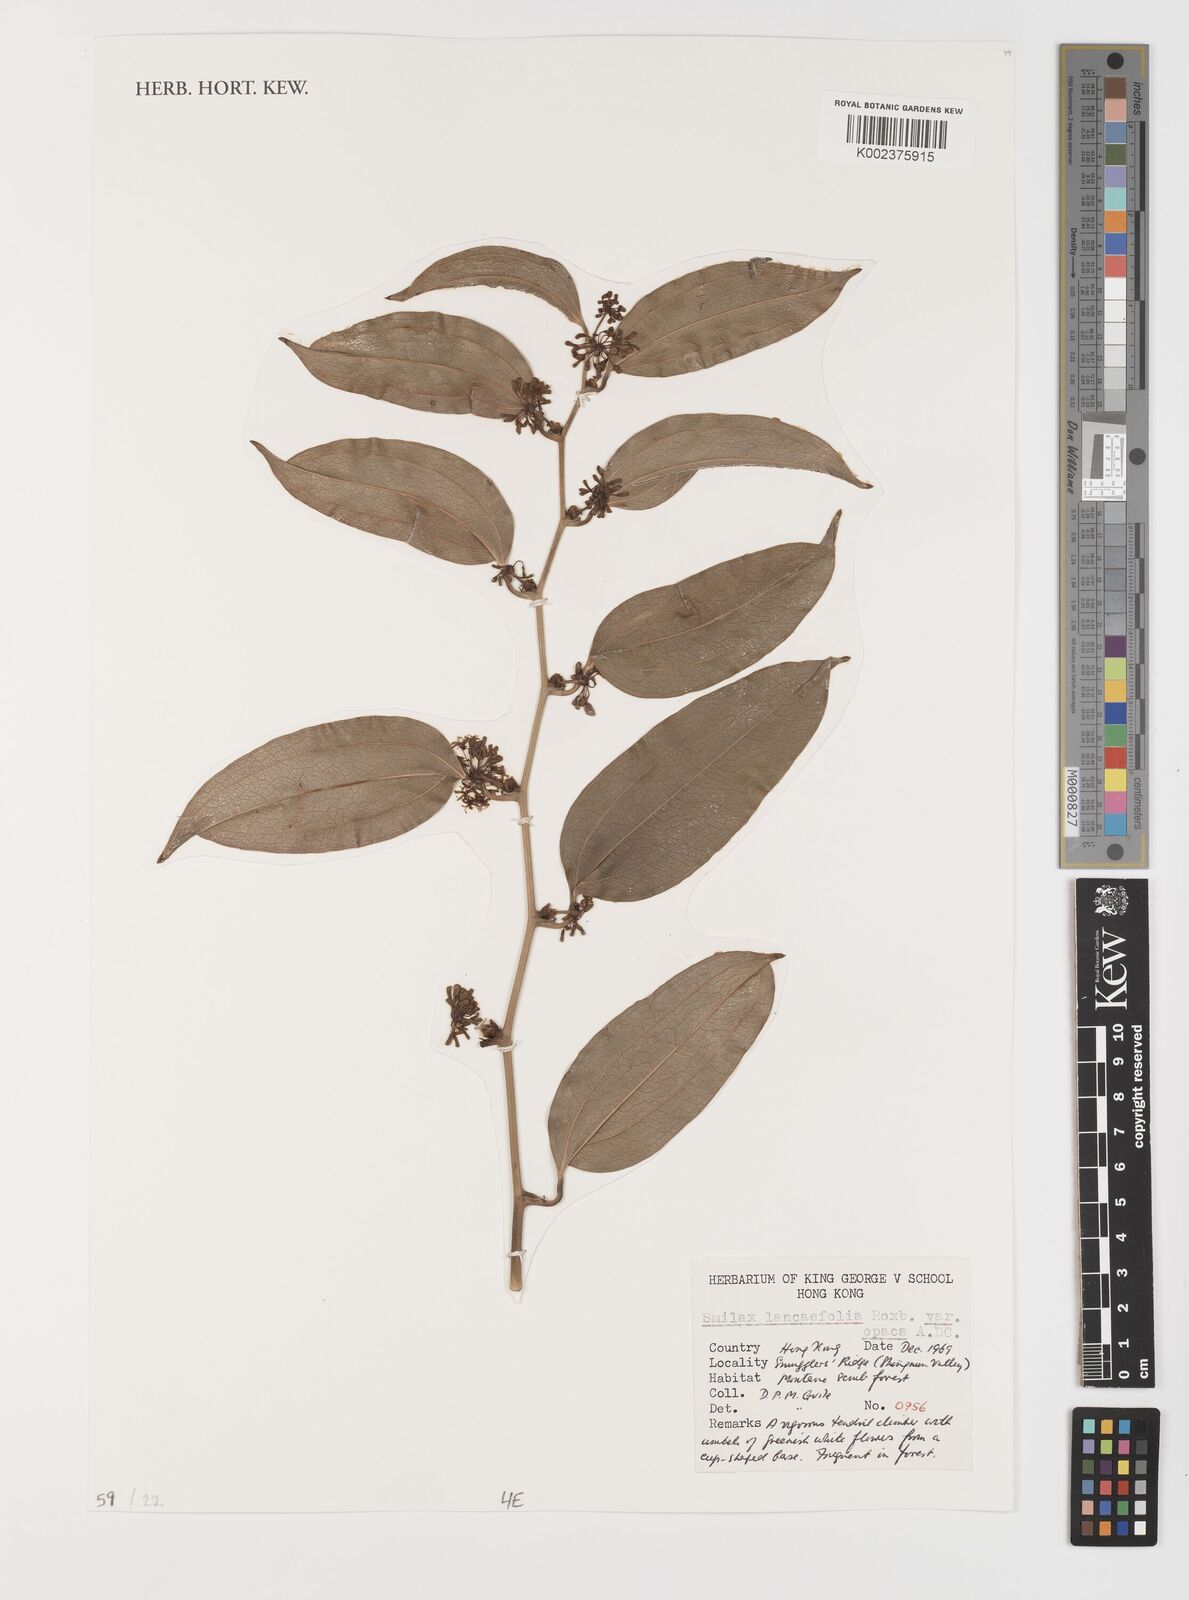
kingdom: Plantae
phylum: Tracheophyta
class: Liliopsida
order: Liliales
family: Smilacaceae
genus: Smilax
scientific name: Smilax lanceifolia
